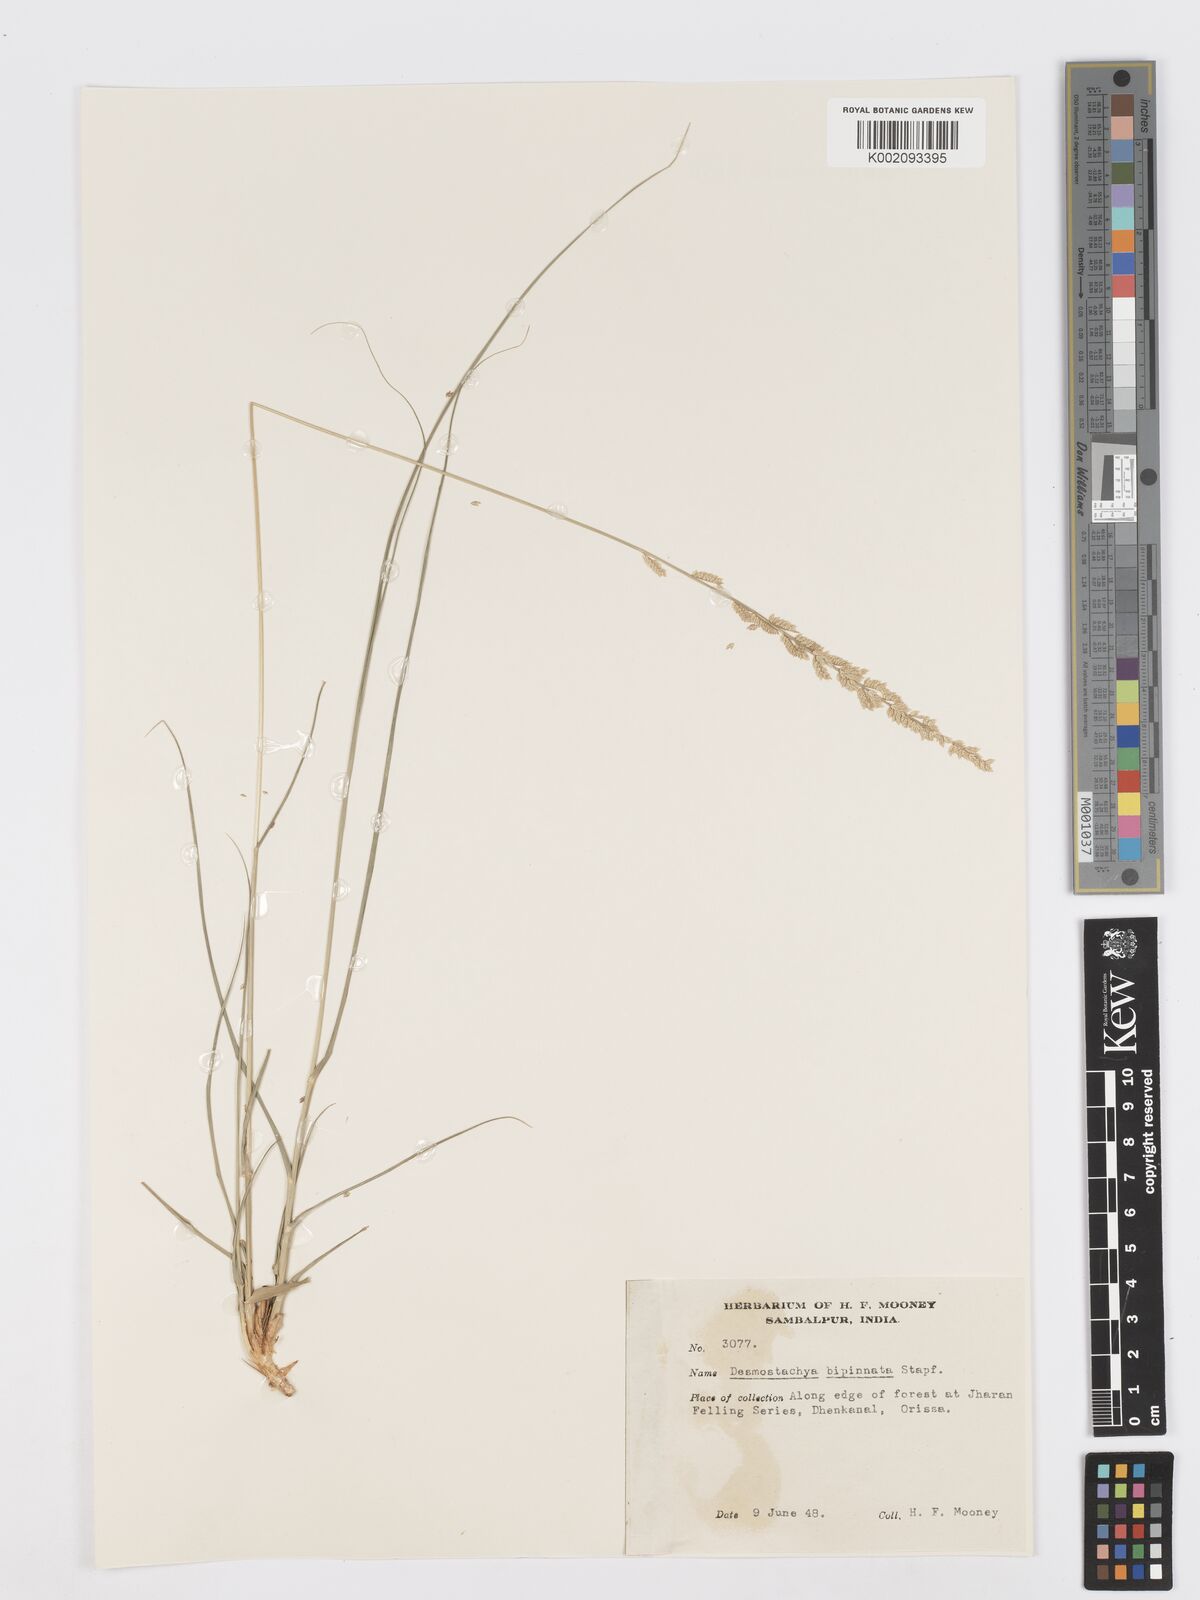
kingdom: Plantae
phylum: Tracheophyta
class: Liliopsida
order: Poales
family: Poaceae
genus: Desmostachya
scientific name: Desmostachya bipinnata
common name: Crowfoot grass
